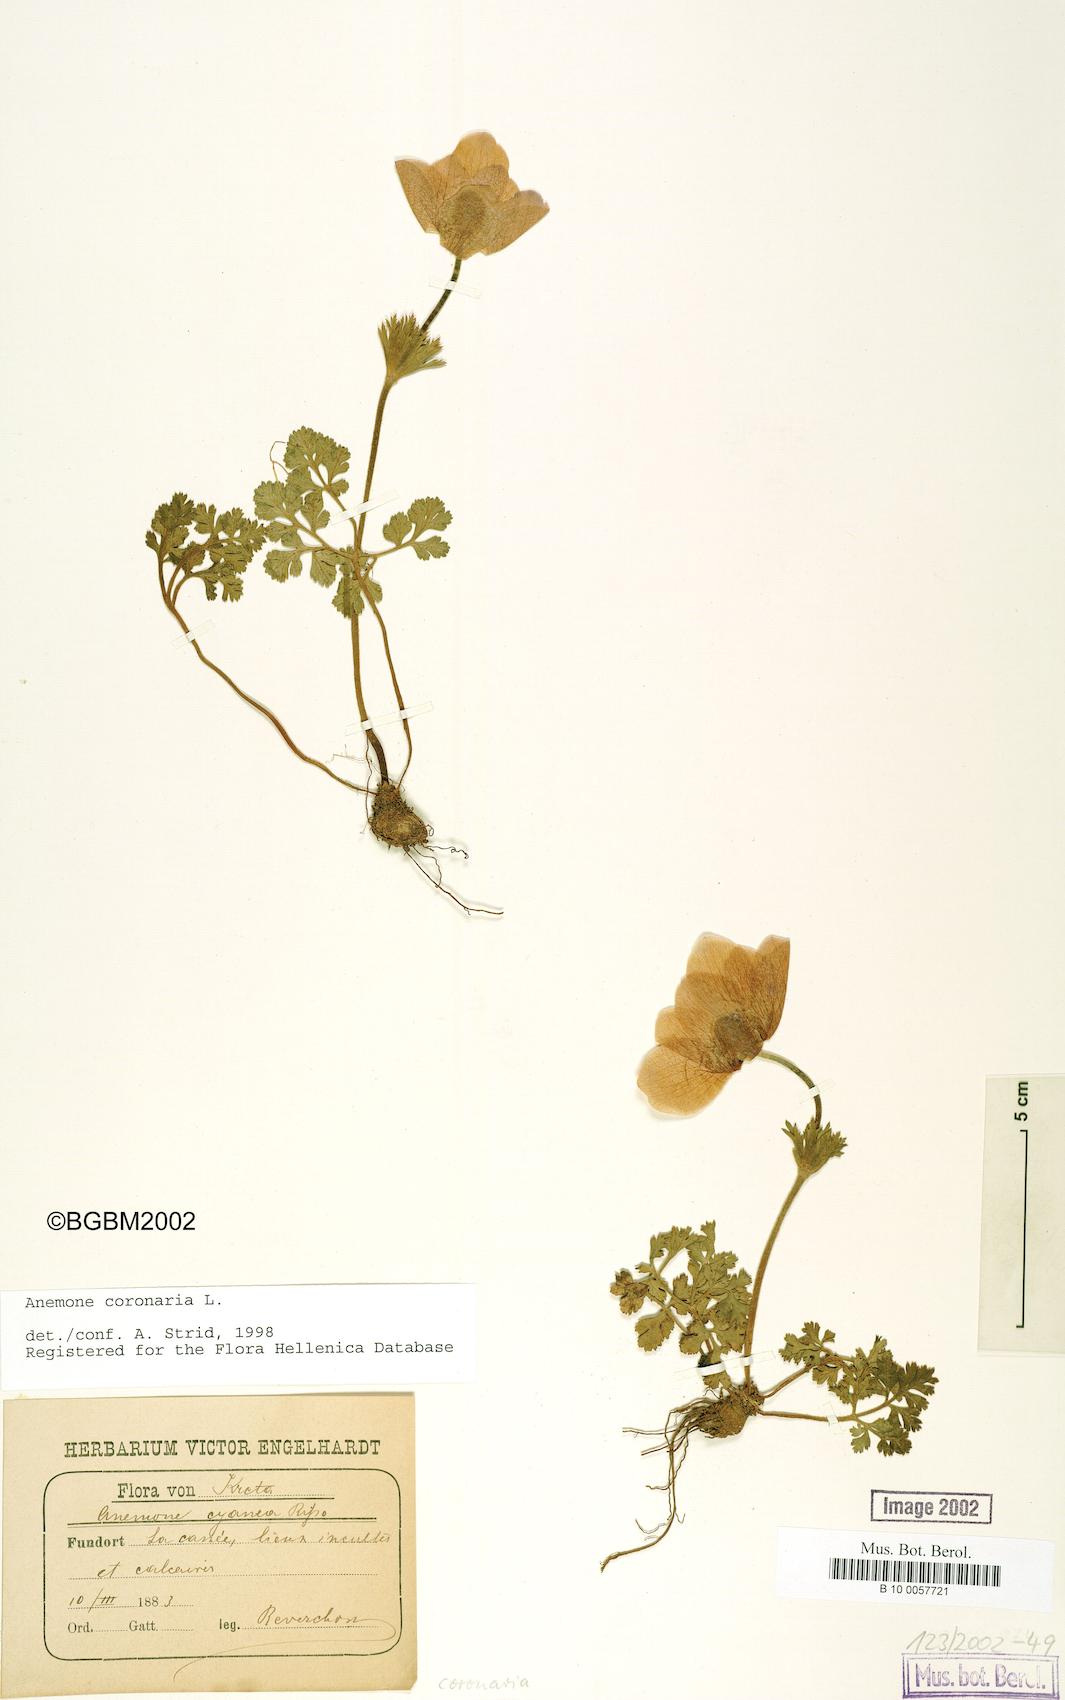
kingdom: Plantae
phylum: Tracheophyta
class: Magnoliopsida
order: Ranunculales
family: Ranunculaceae
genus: Anemone
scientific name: Anemone coronaria
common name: Poppy anemone
